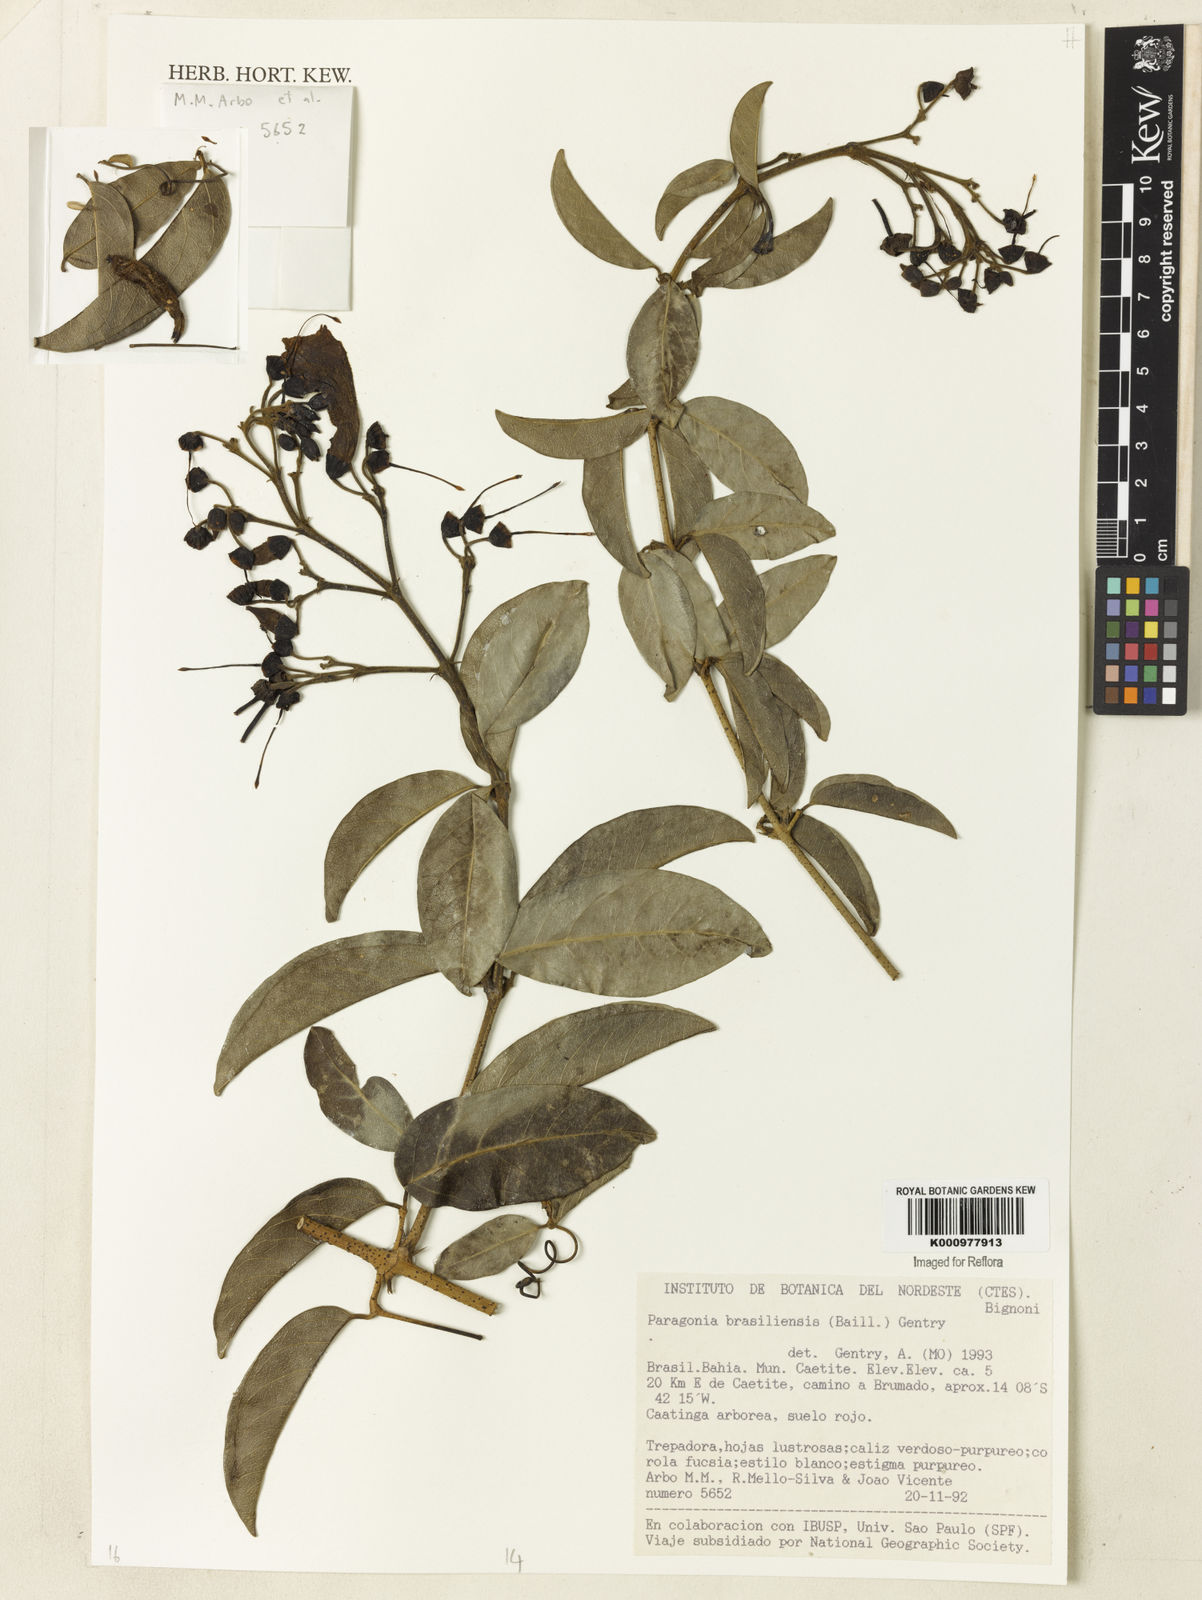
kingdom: Plantae
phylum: Tracheophyta
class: Magnoliopsida
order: Lamiales
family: Bignoniaceae
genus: Tanaecium
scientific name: Tanaecium neobrasiliense
